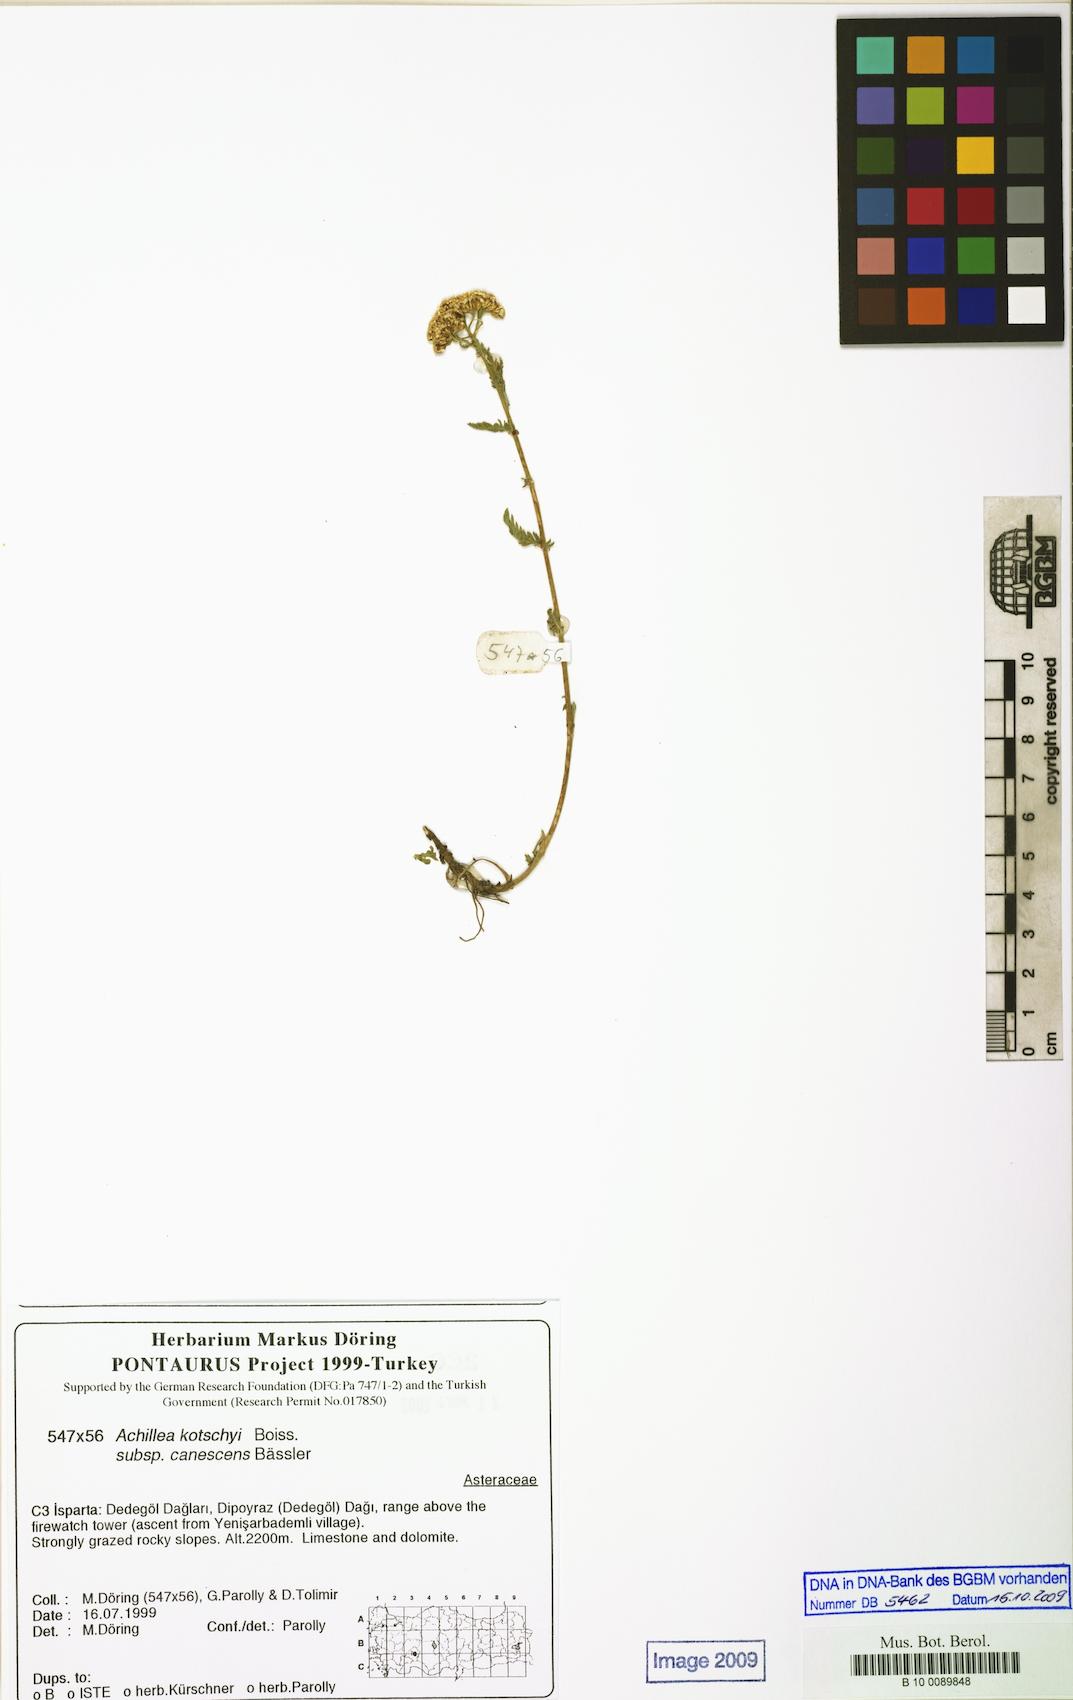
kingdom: Plantae
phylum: Tracheophyta
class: Magnoliopsida
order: Asterales
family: Asteraceae
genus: Achillea
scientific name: Achillea kotschyi
